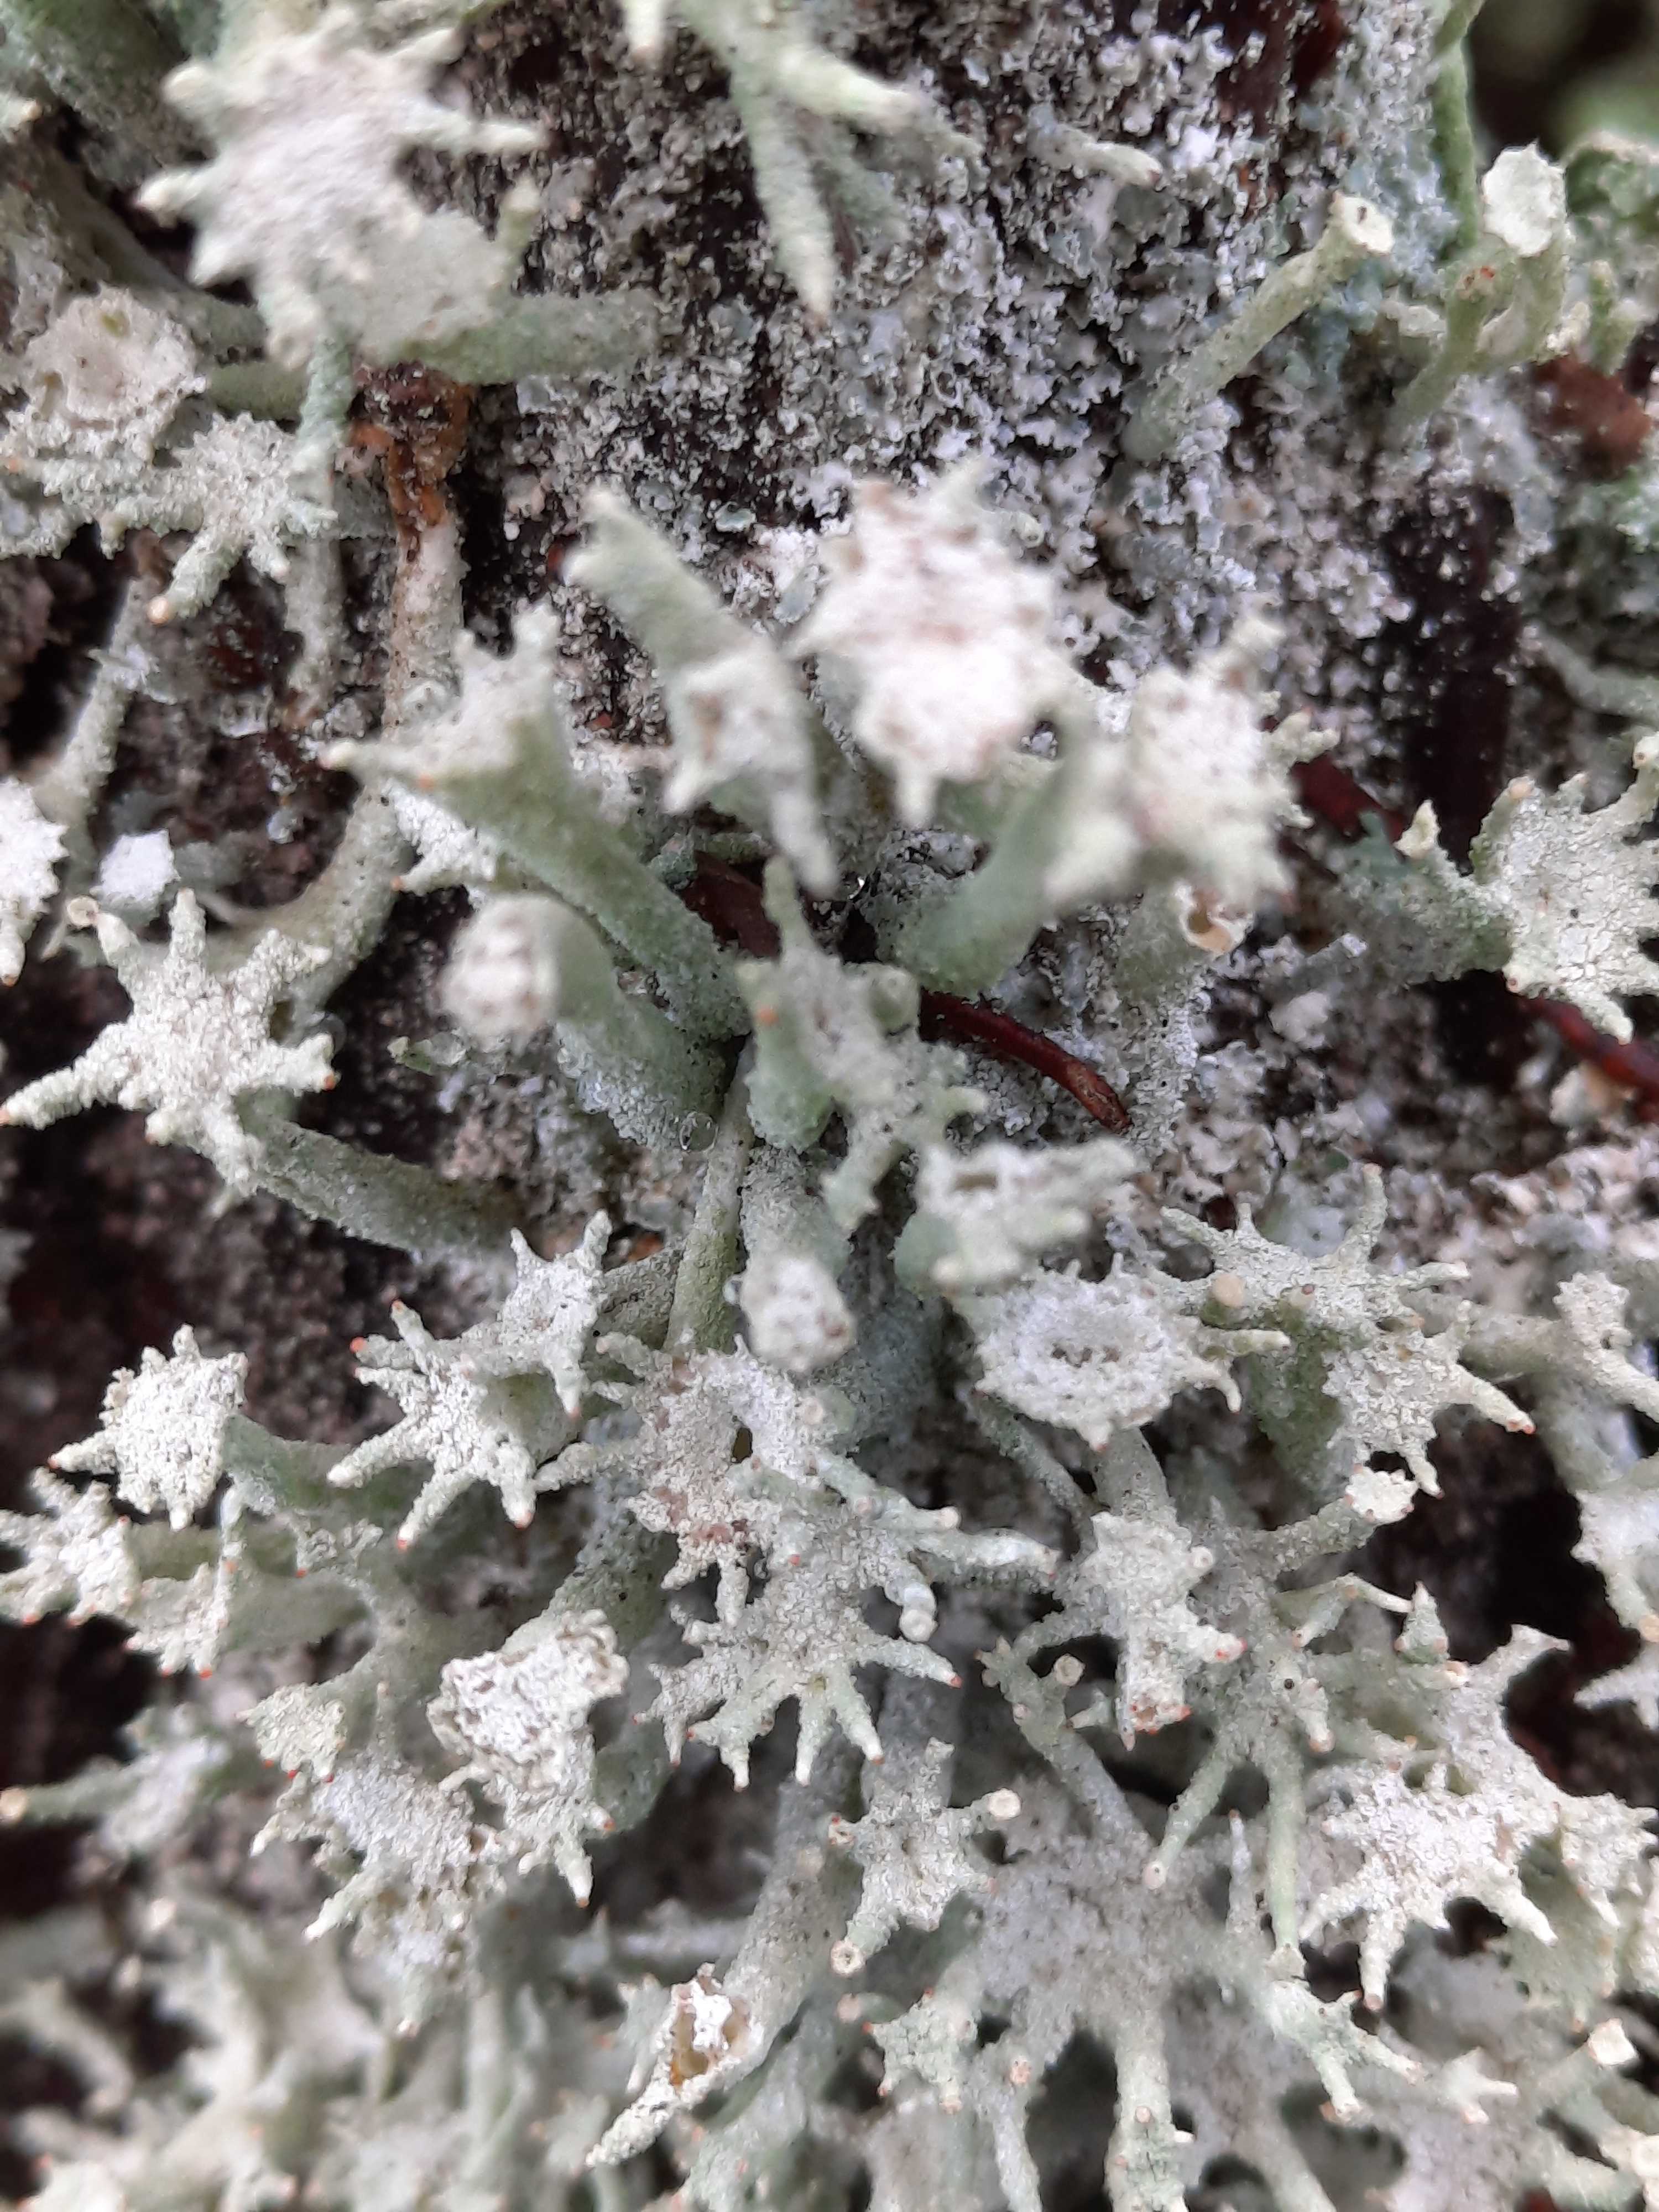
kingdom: Fungi
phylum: Ascomycota
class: Lecanoromycetes
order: Lecanorales
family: Cladoniaceae
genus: Cladonia
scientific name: Cladonia polydactyla
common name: vifte-bægerlav
